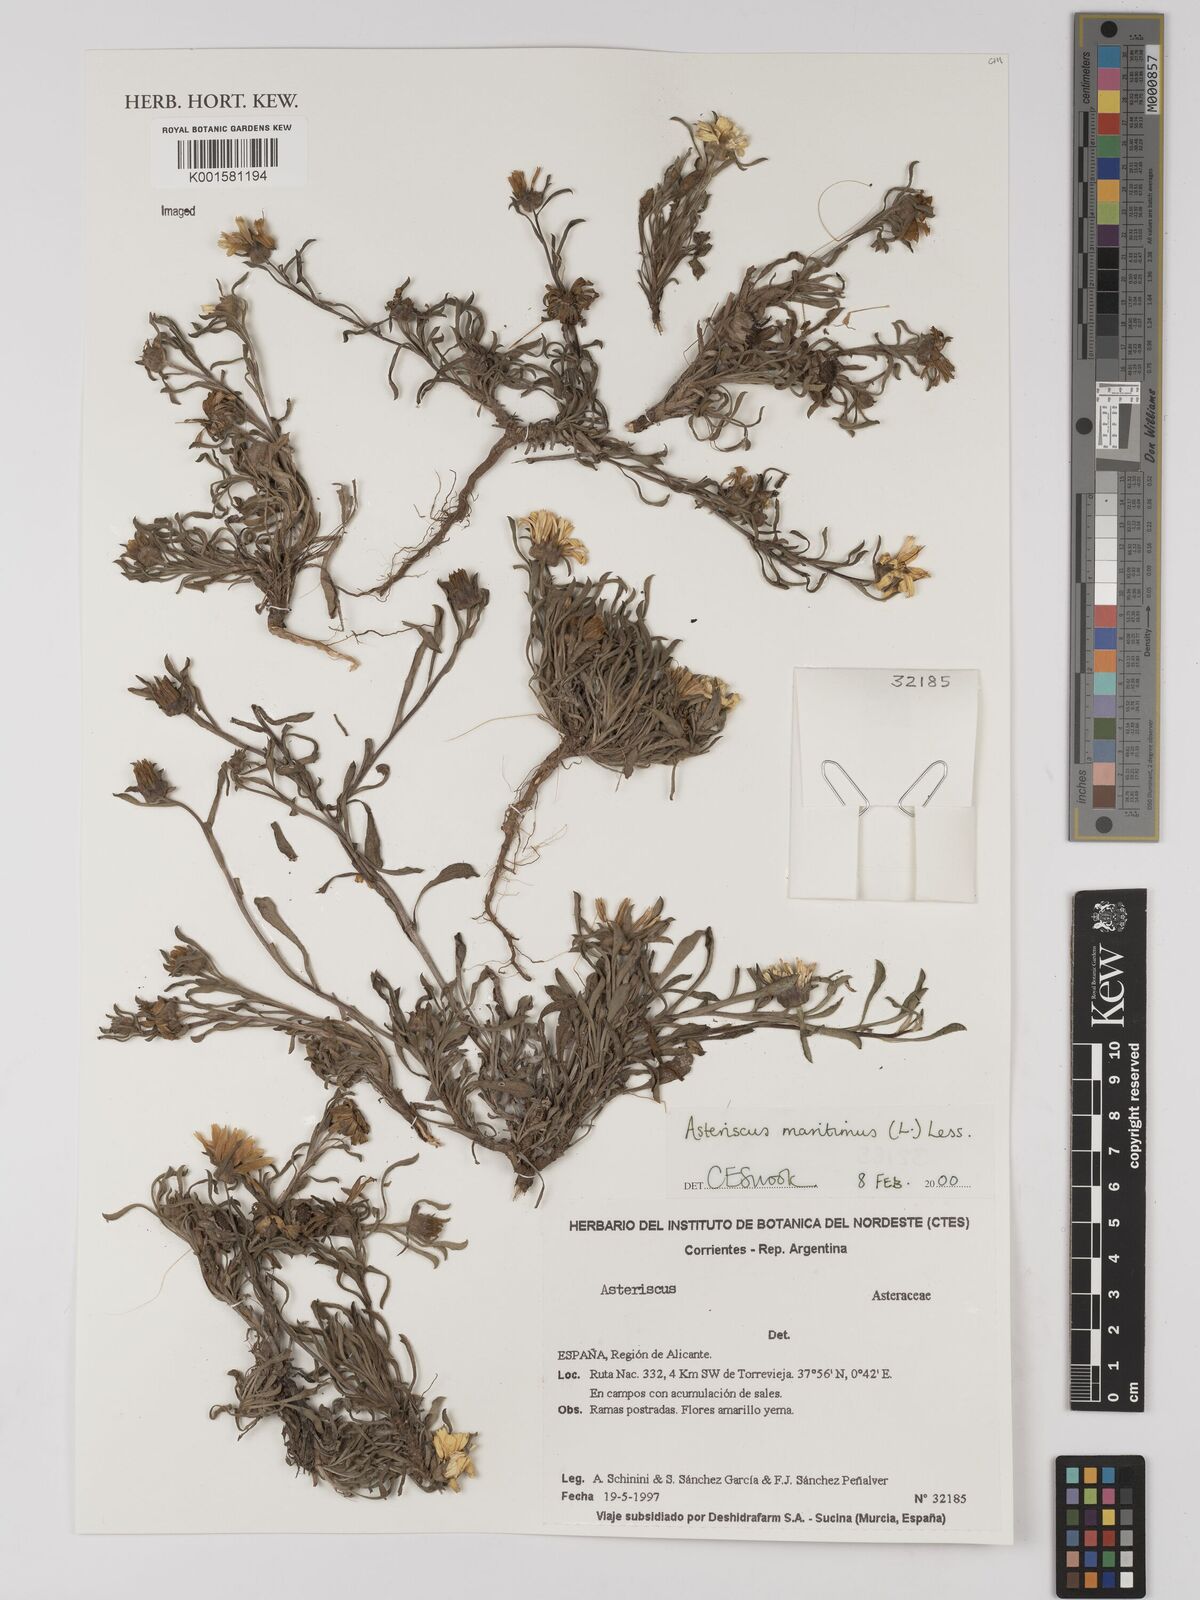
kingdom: Plantae
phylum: Tracheophyta
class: Magnoliopsida
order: Asterales
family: Asteraceae
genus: Pallenis
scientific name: Pallenis maritima
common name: Golden coin daisy
